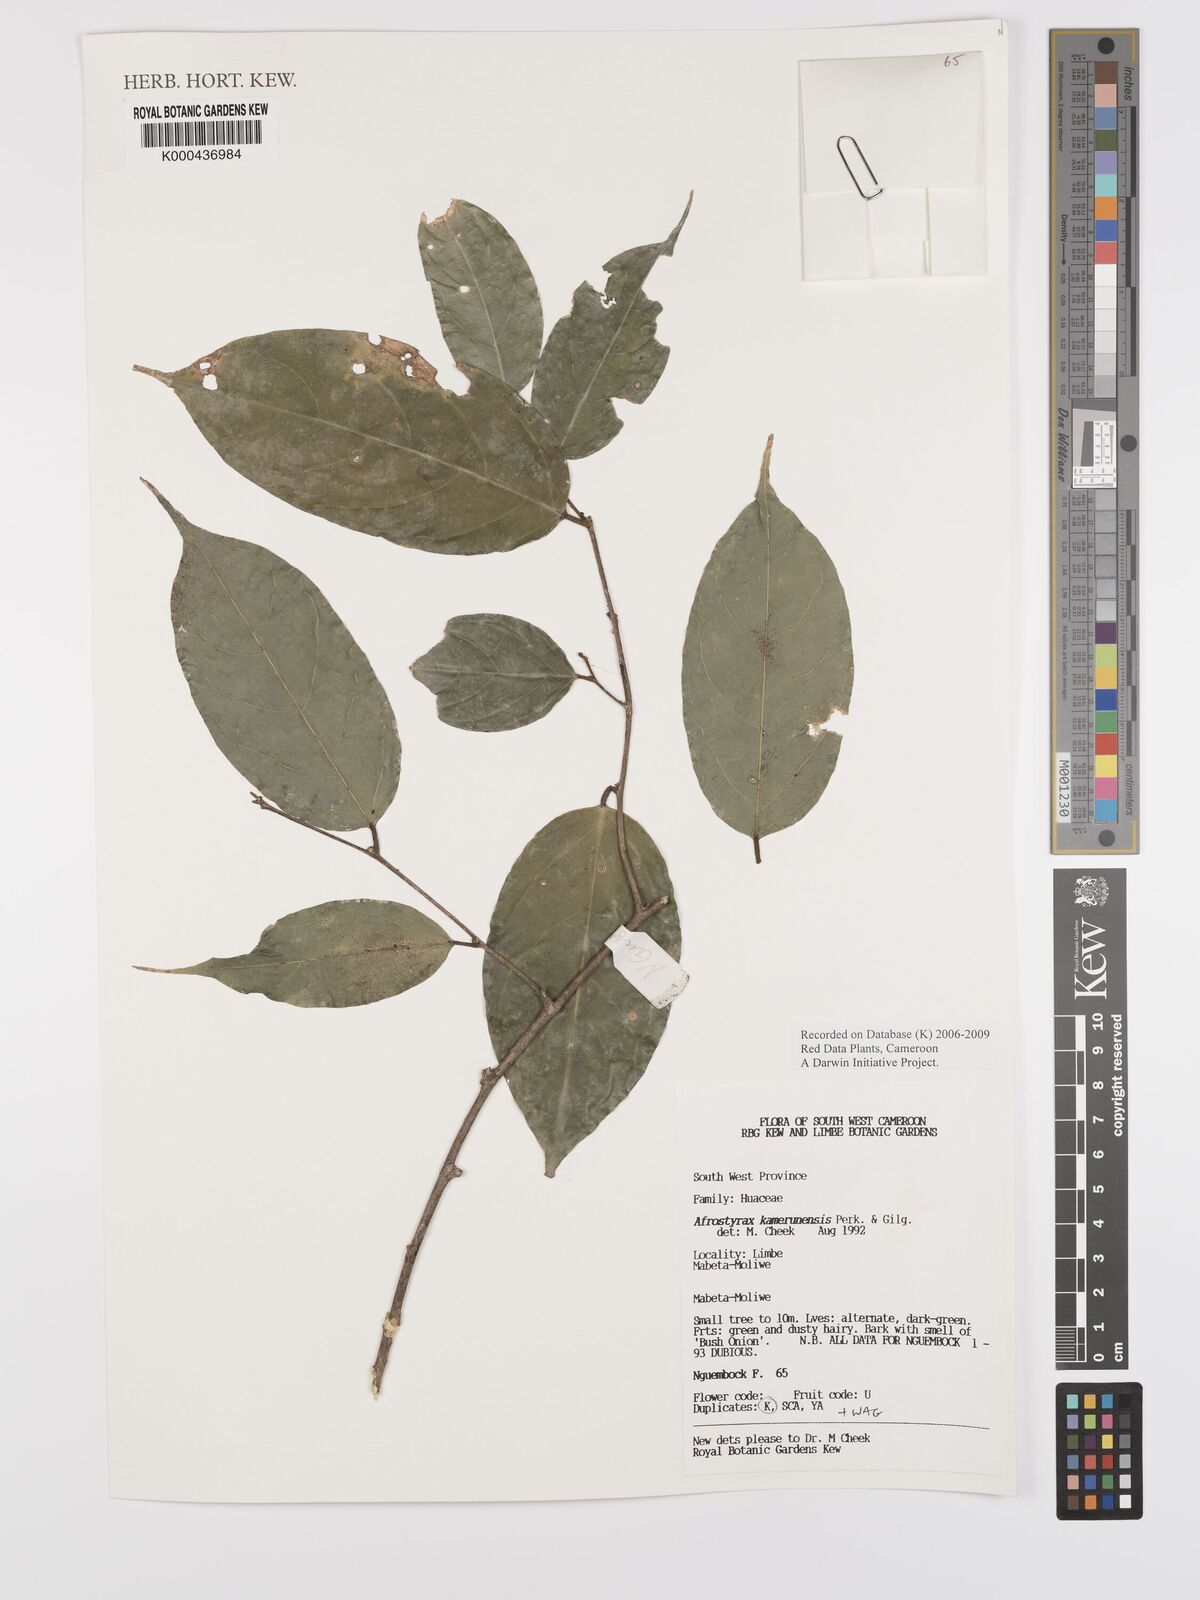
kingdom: Plantae
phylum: Tracheophyta
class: Magnoliopsida
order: Oxalidales
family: Huaceae
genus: Afrostyrax
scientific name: Afrostyrax kamerunensis
